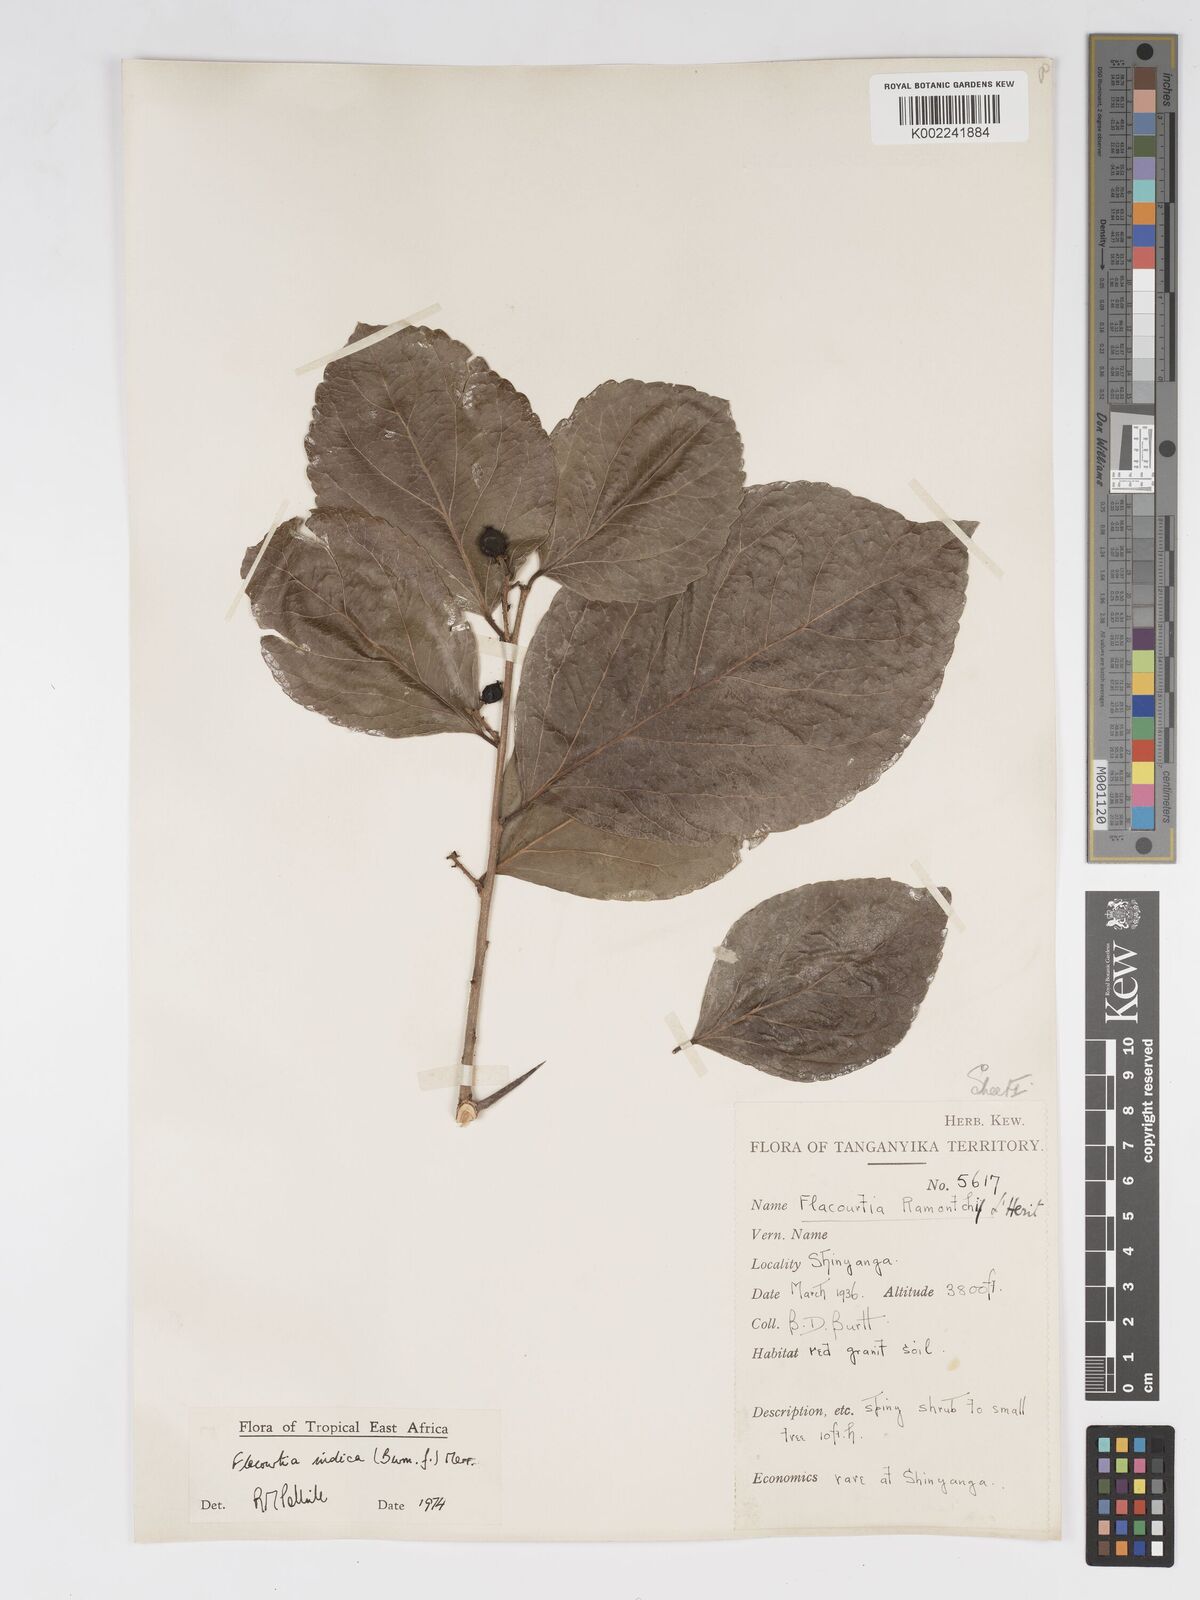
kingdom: Plantae
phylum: Tracheophyta
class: Magnoliopsida
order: Malpighiales
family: Salicaceae
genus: Flacourtia
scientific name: Flacourtia indica
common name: Governor's plum
